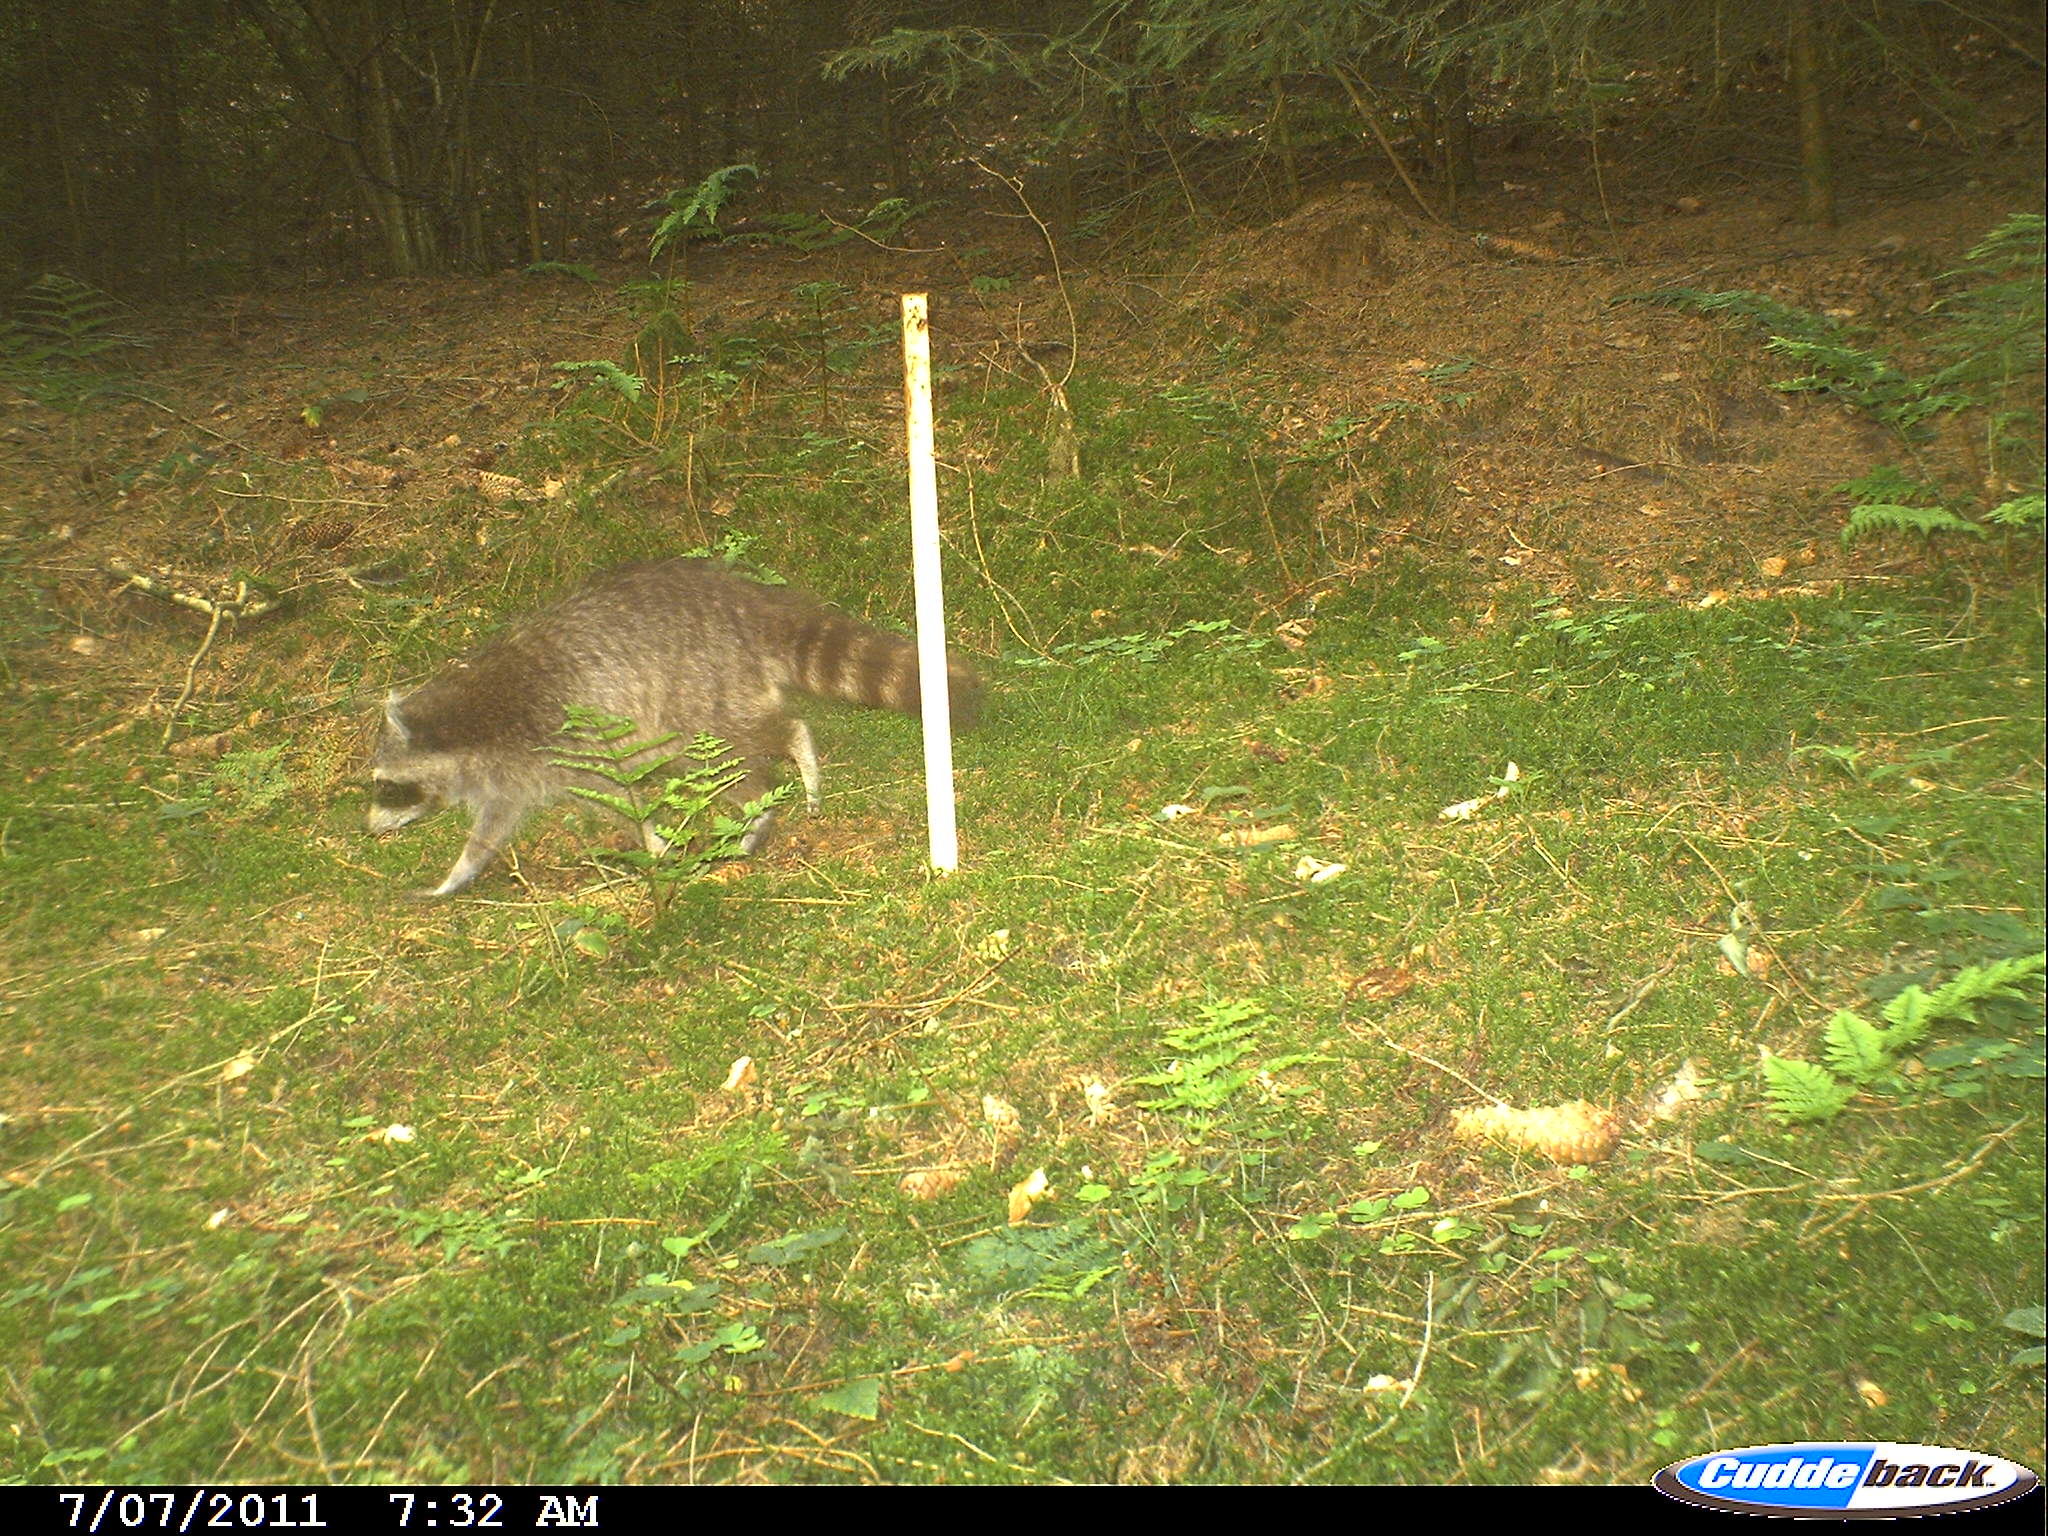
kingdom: Animalia
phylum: Chordata
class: Mammalia
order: Carnivora
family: Procyonidae
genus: Procyon
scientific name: Procyon lotor
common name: Raccoon
